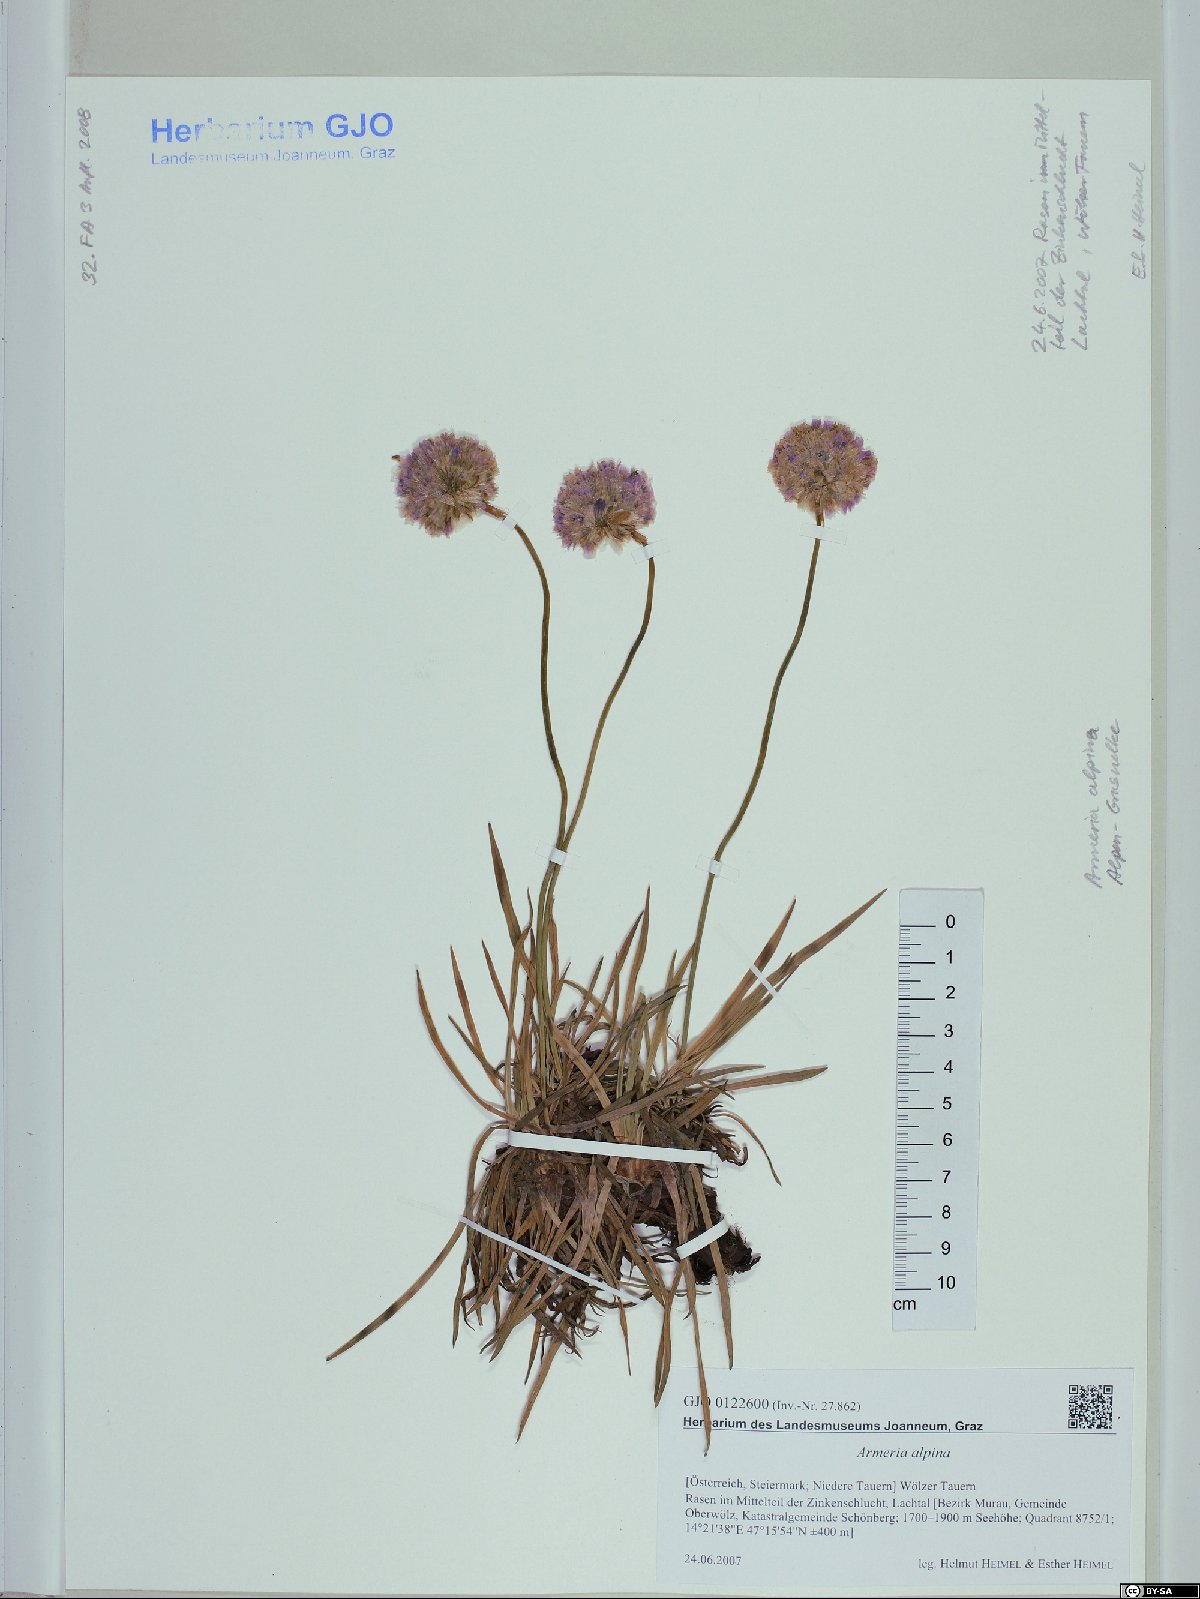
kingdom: Plantae
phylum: Tracheophyta
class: Magnoliopsida
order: Caryophyllales
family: Plumbaginaceae
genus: Armeria
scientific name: Armeria alpina
